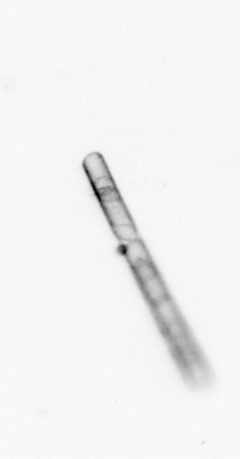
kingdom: Chromista
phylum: Ochrophyta
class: Bacillariophyceae
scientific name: Bacillariophyceae
